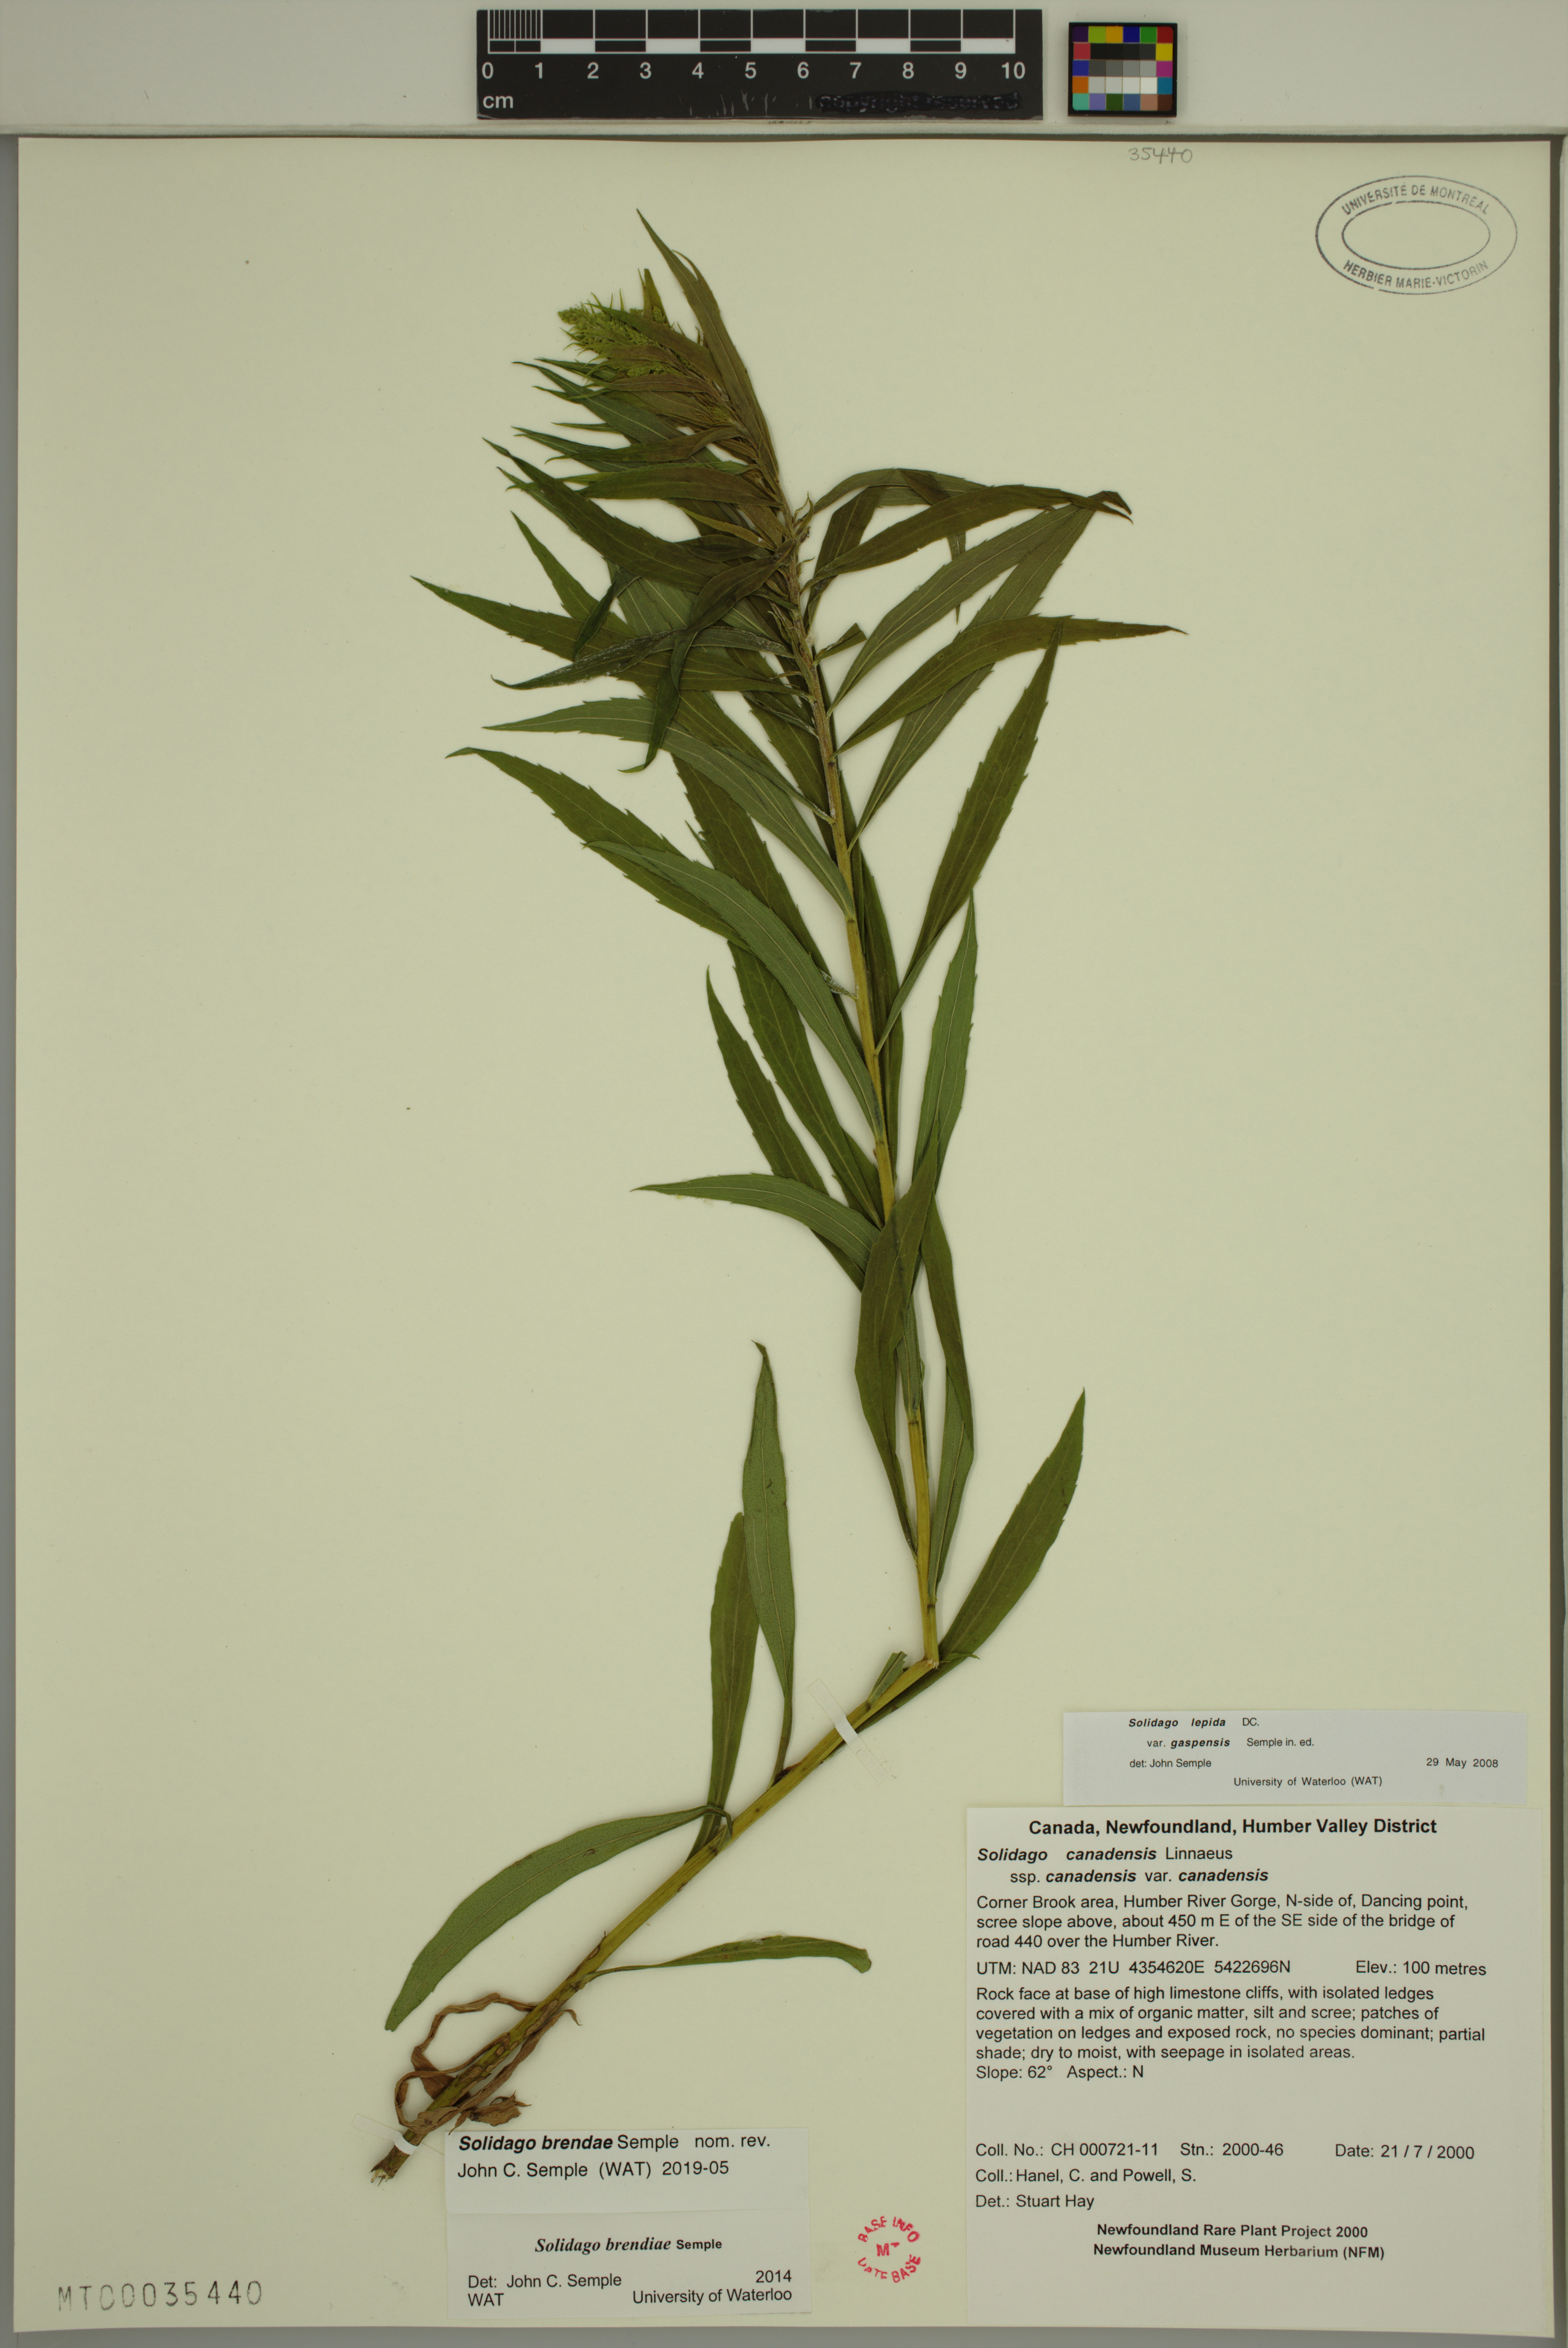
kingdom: Plantae
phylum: Tracheophyta
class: Magnoliopsida
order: Asterales
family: Asteraceae
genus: Solidago
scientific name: Solidago brendae
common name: Brenda's goldenrod
